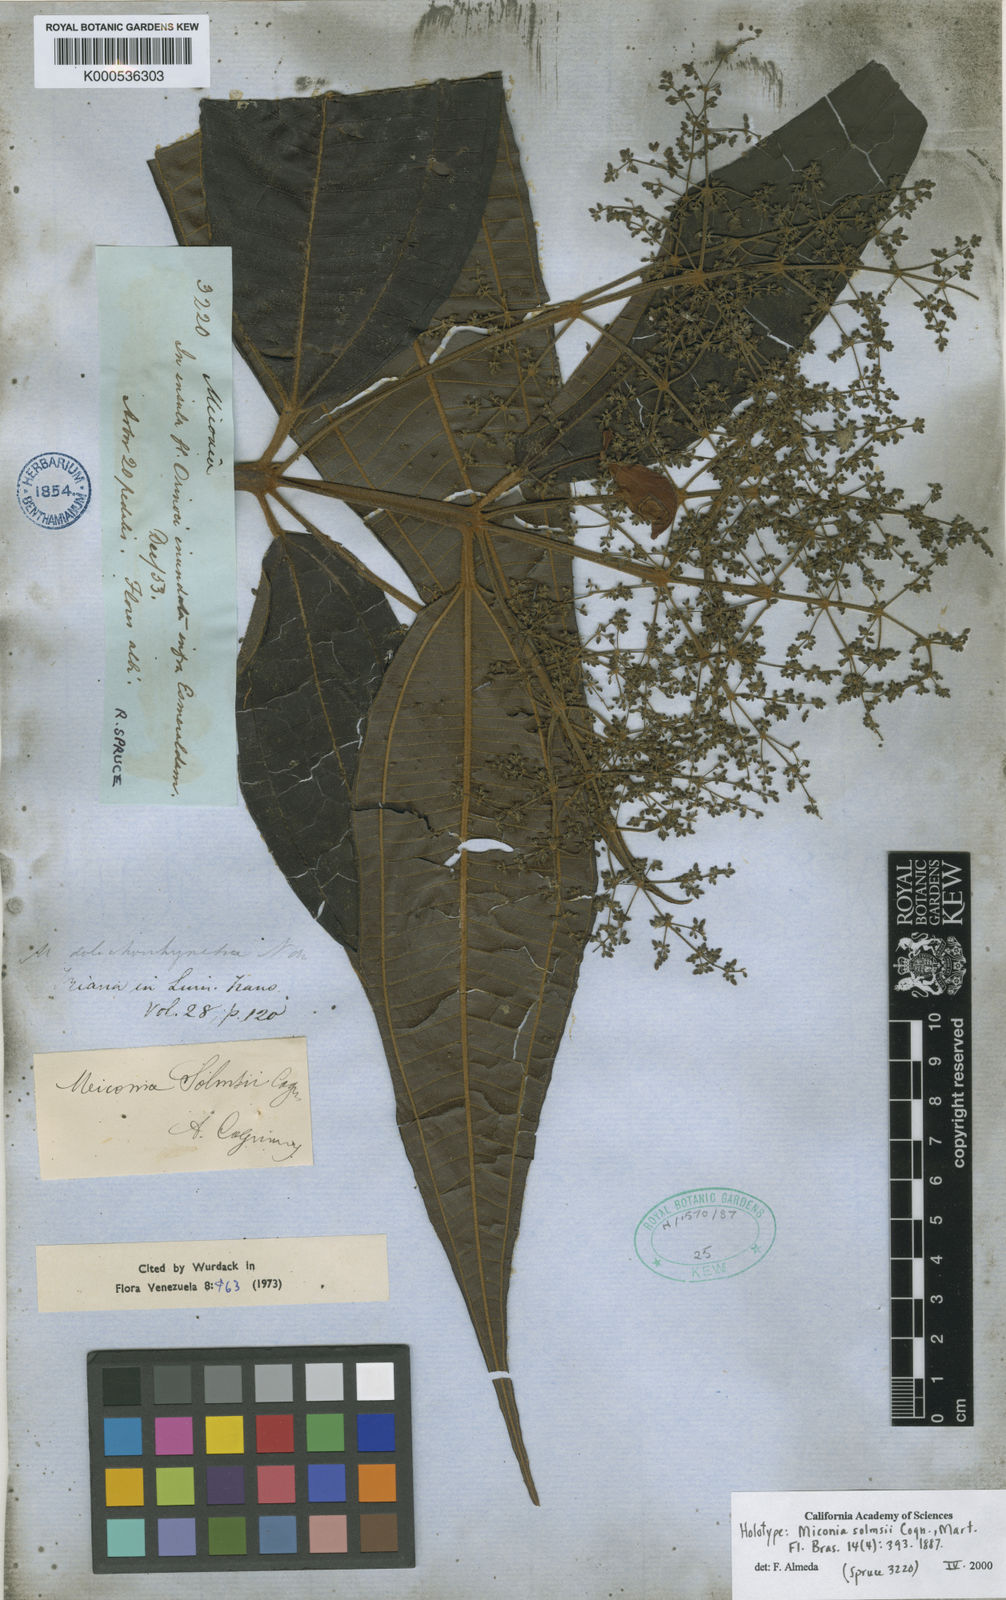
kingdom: Plantae
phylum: Tracheophyta
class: Magnoliopsida
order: Myrtales
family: Melastomataceae
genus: Miconia
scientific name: Miconia dolichorrhyncha
